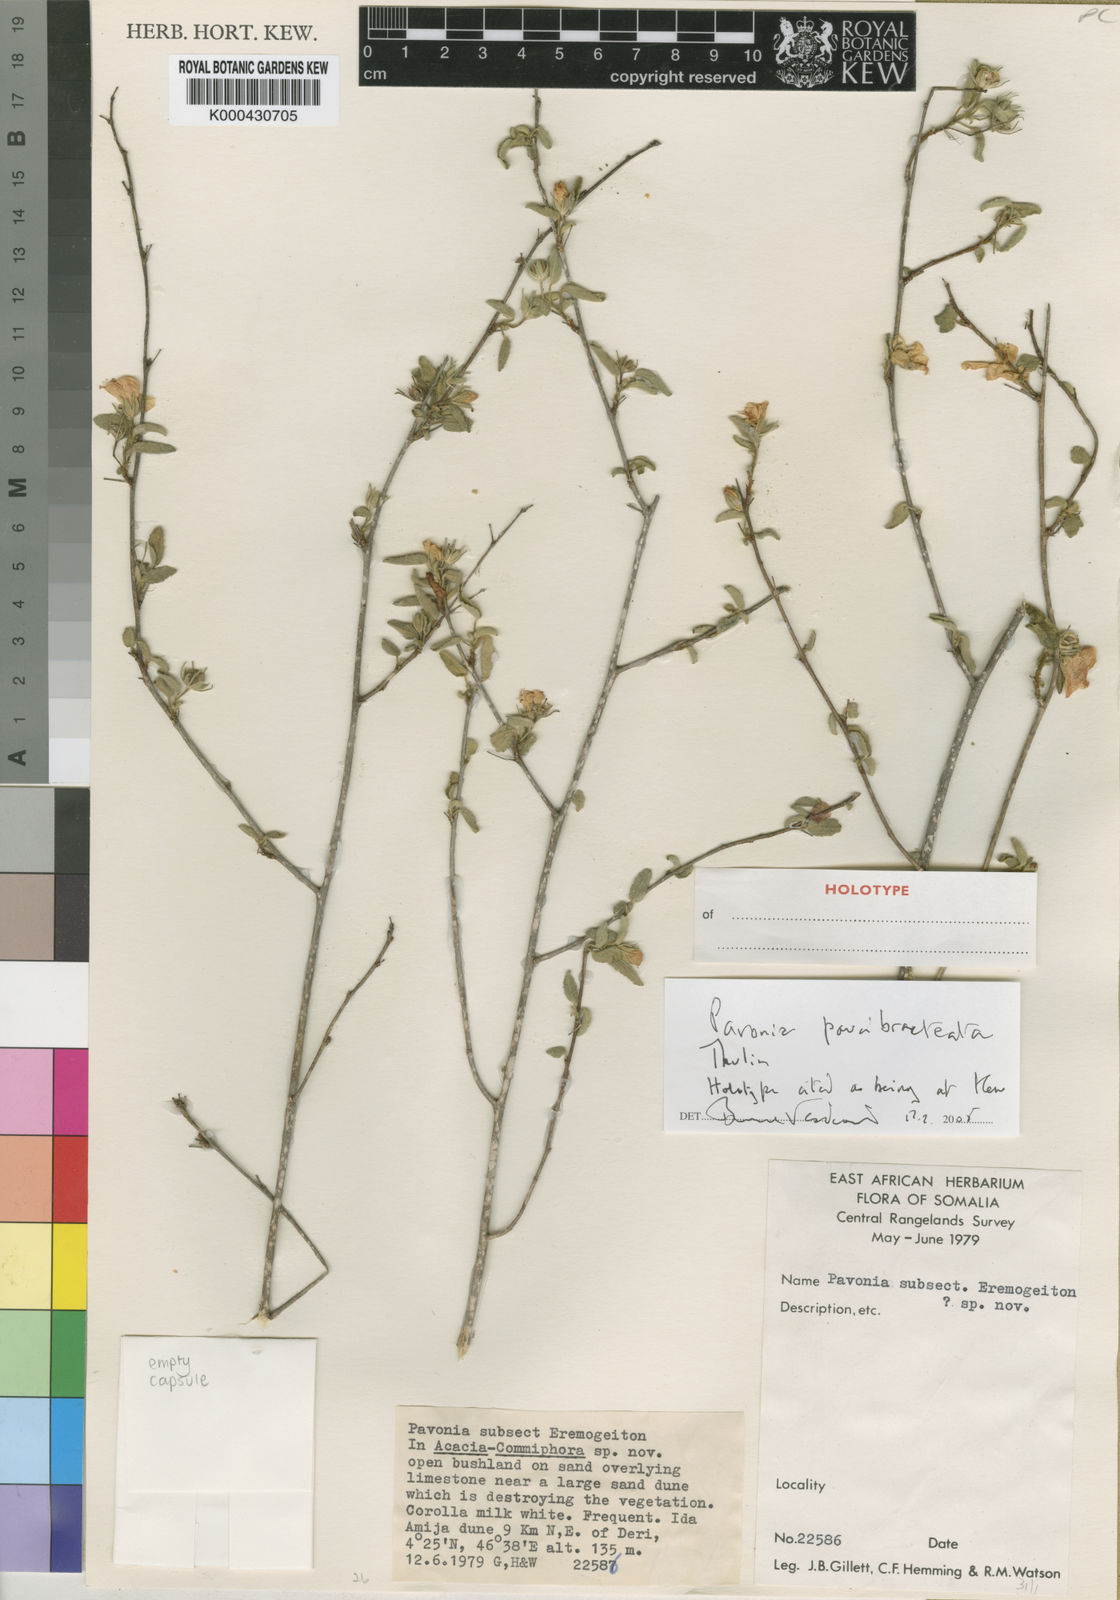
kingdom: Plantae
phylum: Tracheophyta
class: Magnoliopsida
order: Malvales
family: Malvaceae
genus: Pavonia
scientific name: Pavonia paucibracteata
